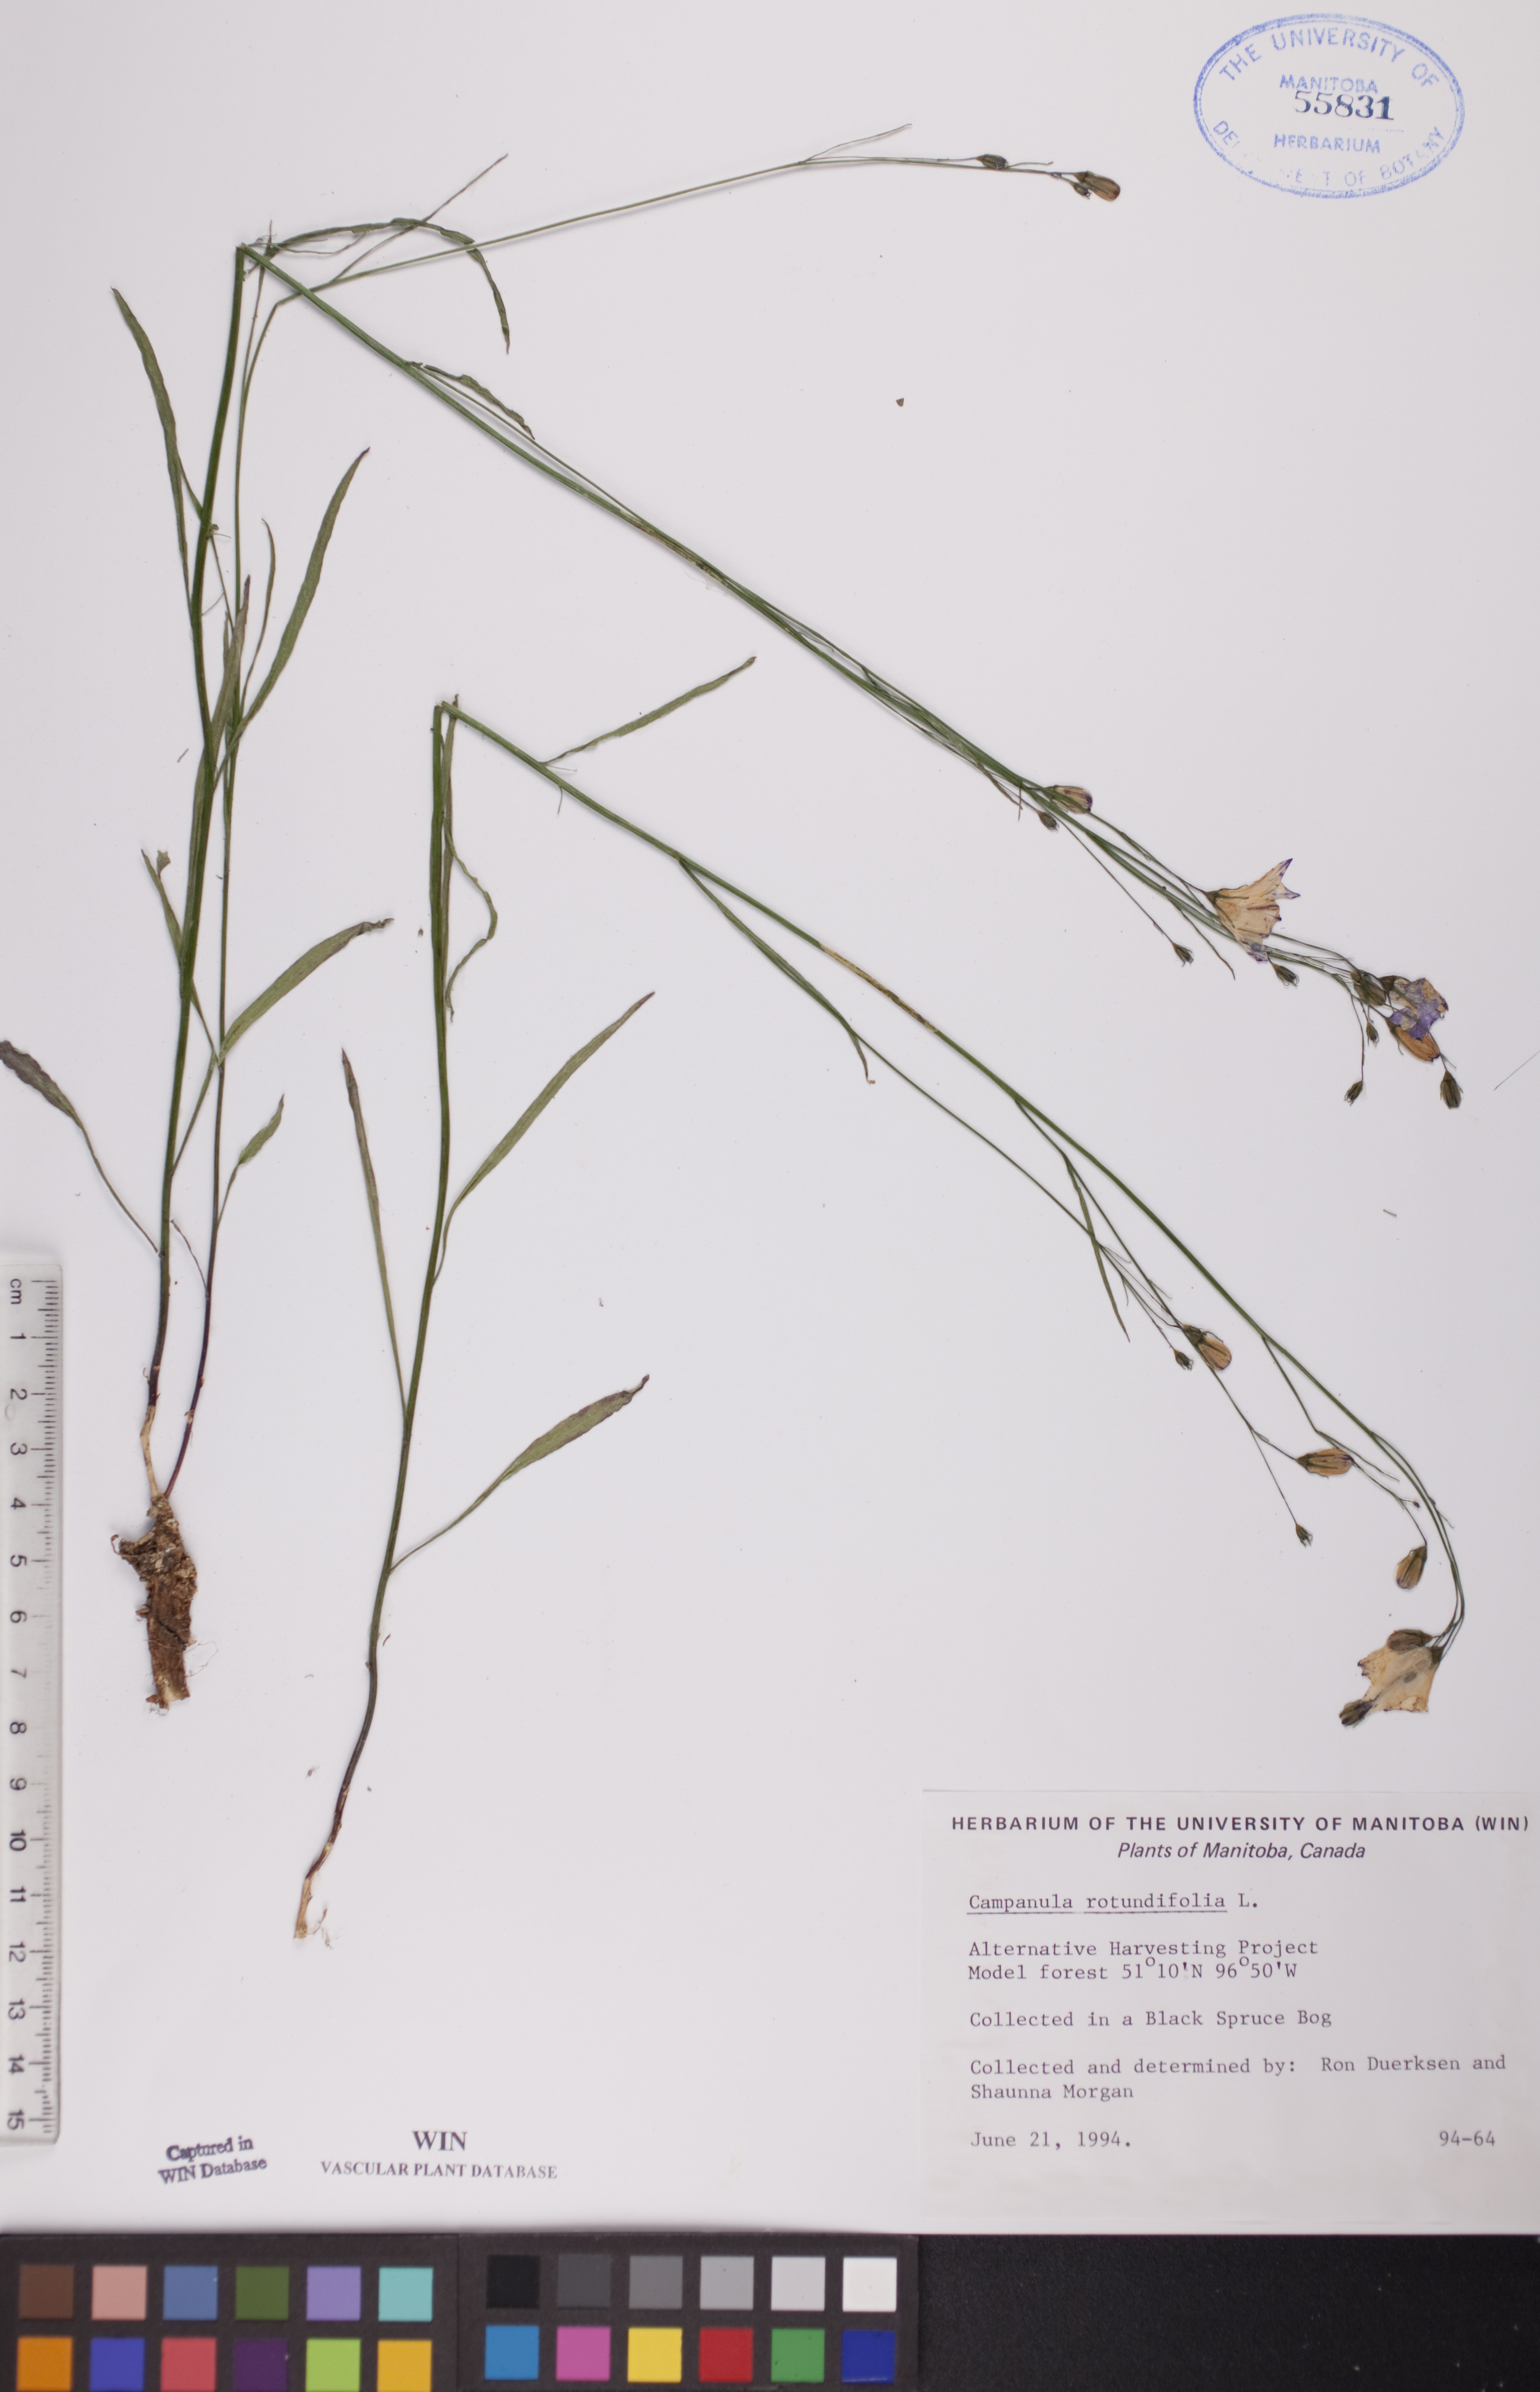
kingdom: Plantae
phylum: Tracheophyta
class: Magnoliopsida
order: Asterales
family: Campanulaceae
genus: Campanula
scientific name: Campanula rotundifolia
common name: Harebell
